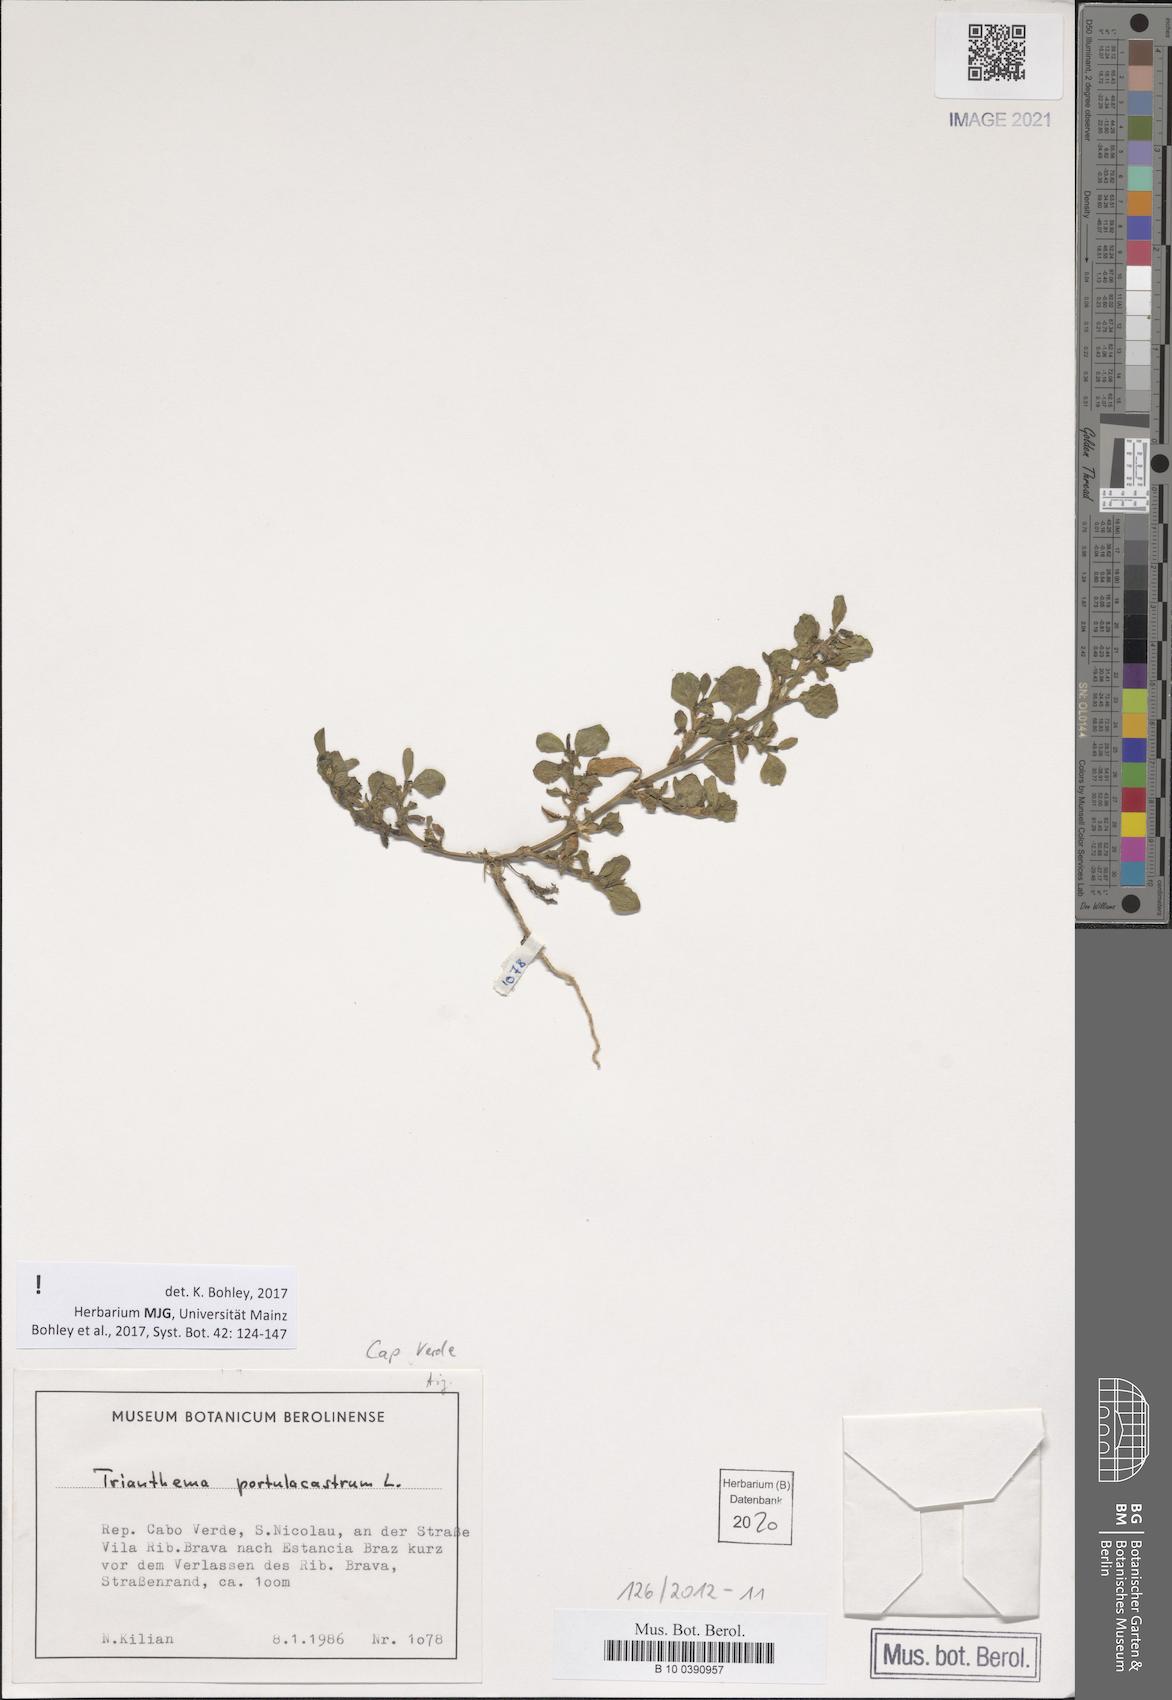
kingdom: Plantae
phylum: Tracheophyta
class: Magnoliopsida
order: Caryophyllales
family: Aizoaceae
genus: Trianthema
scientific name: Trianthema portulacastrum
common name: Desert horsepurslane
